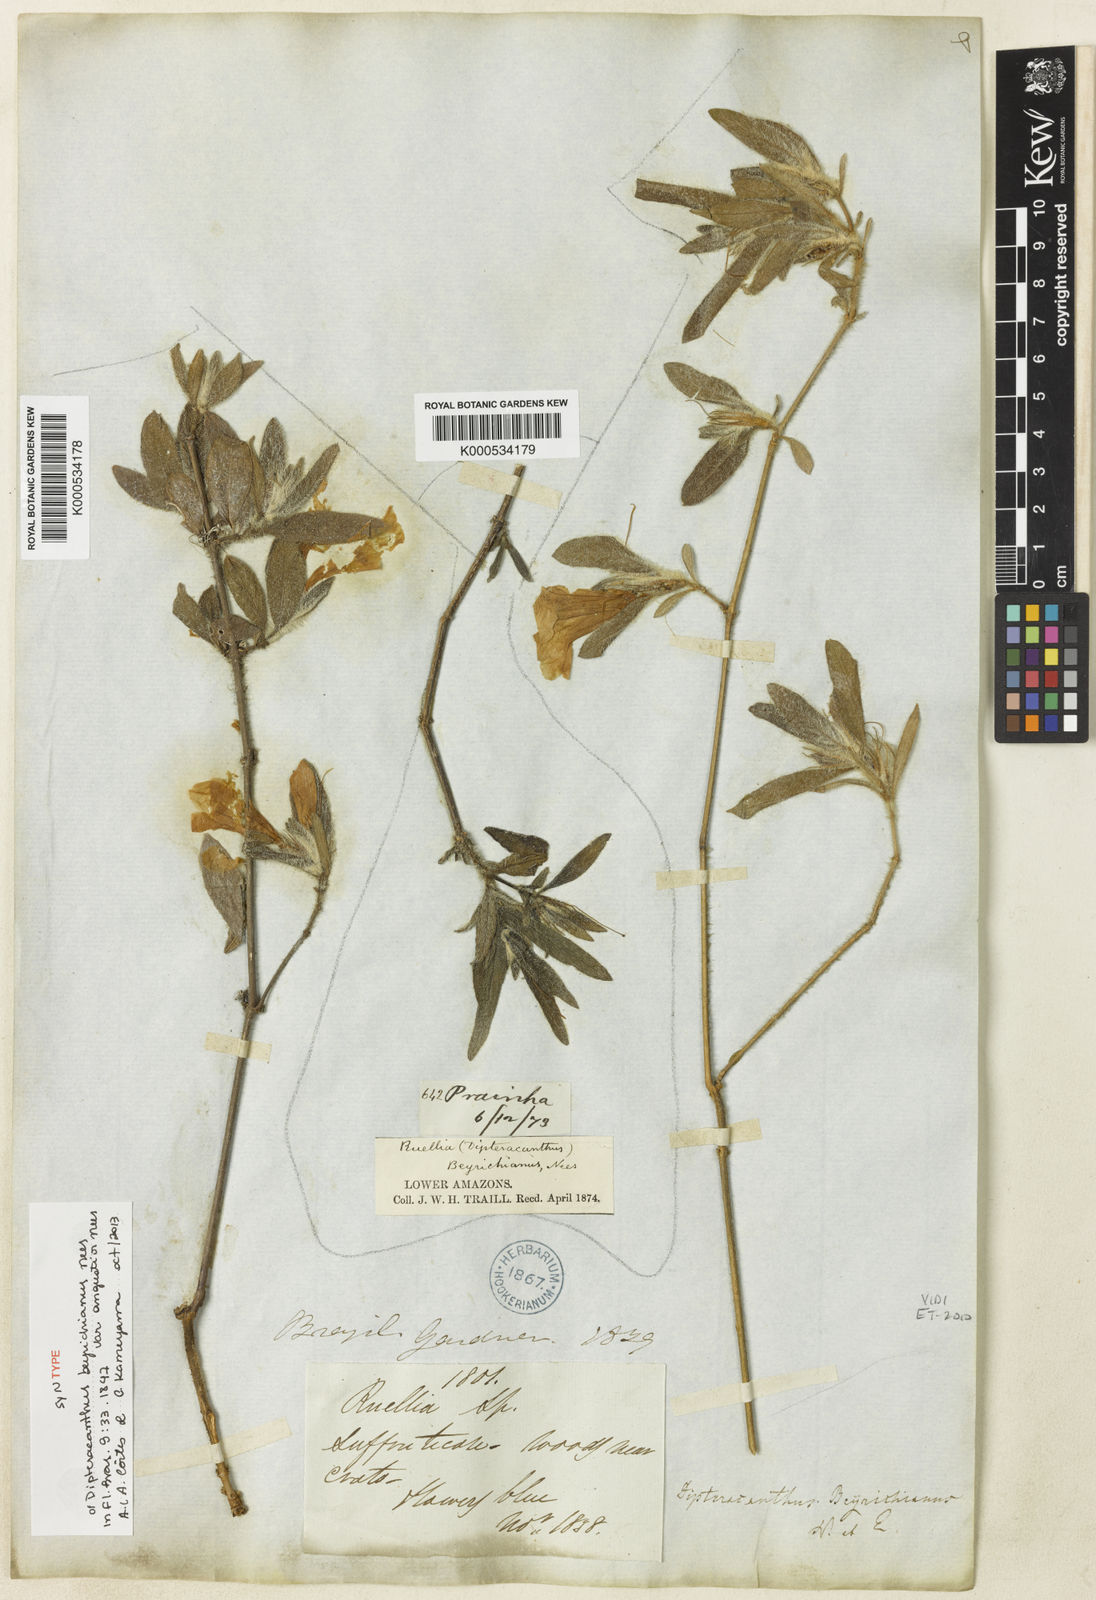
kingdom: Plantae
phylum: Tracheophyta
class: Magnoliopsida
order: Lamiales
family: Acanthaceae
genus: Ruellia
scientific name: Ruellia beyrichiana
